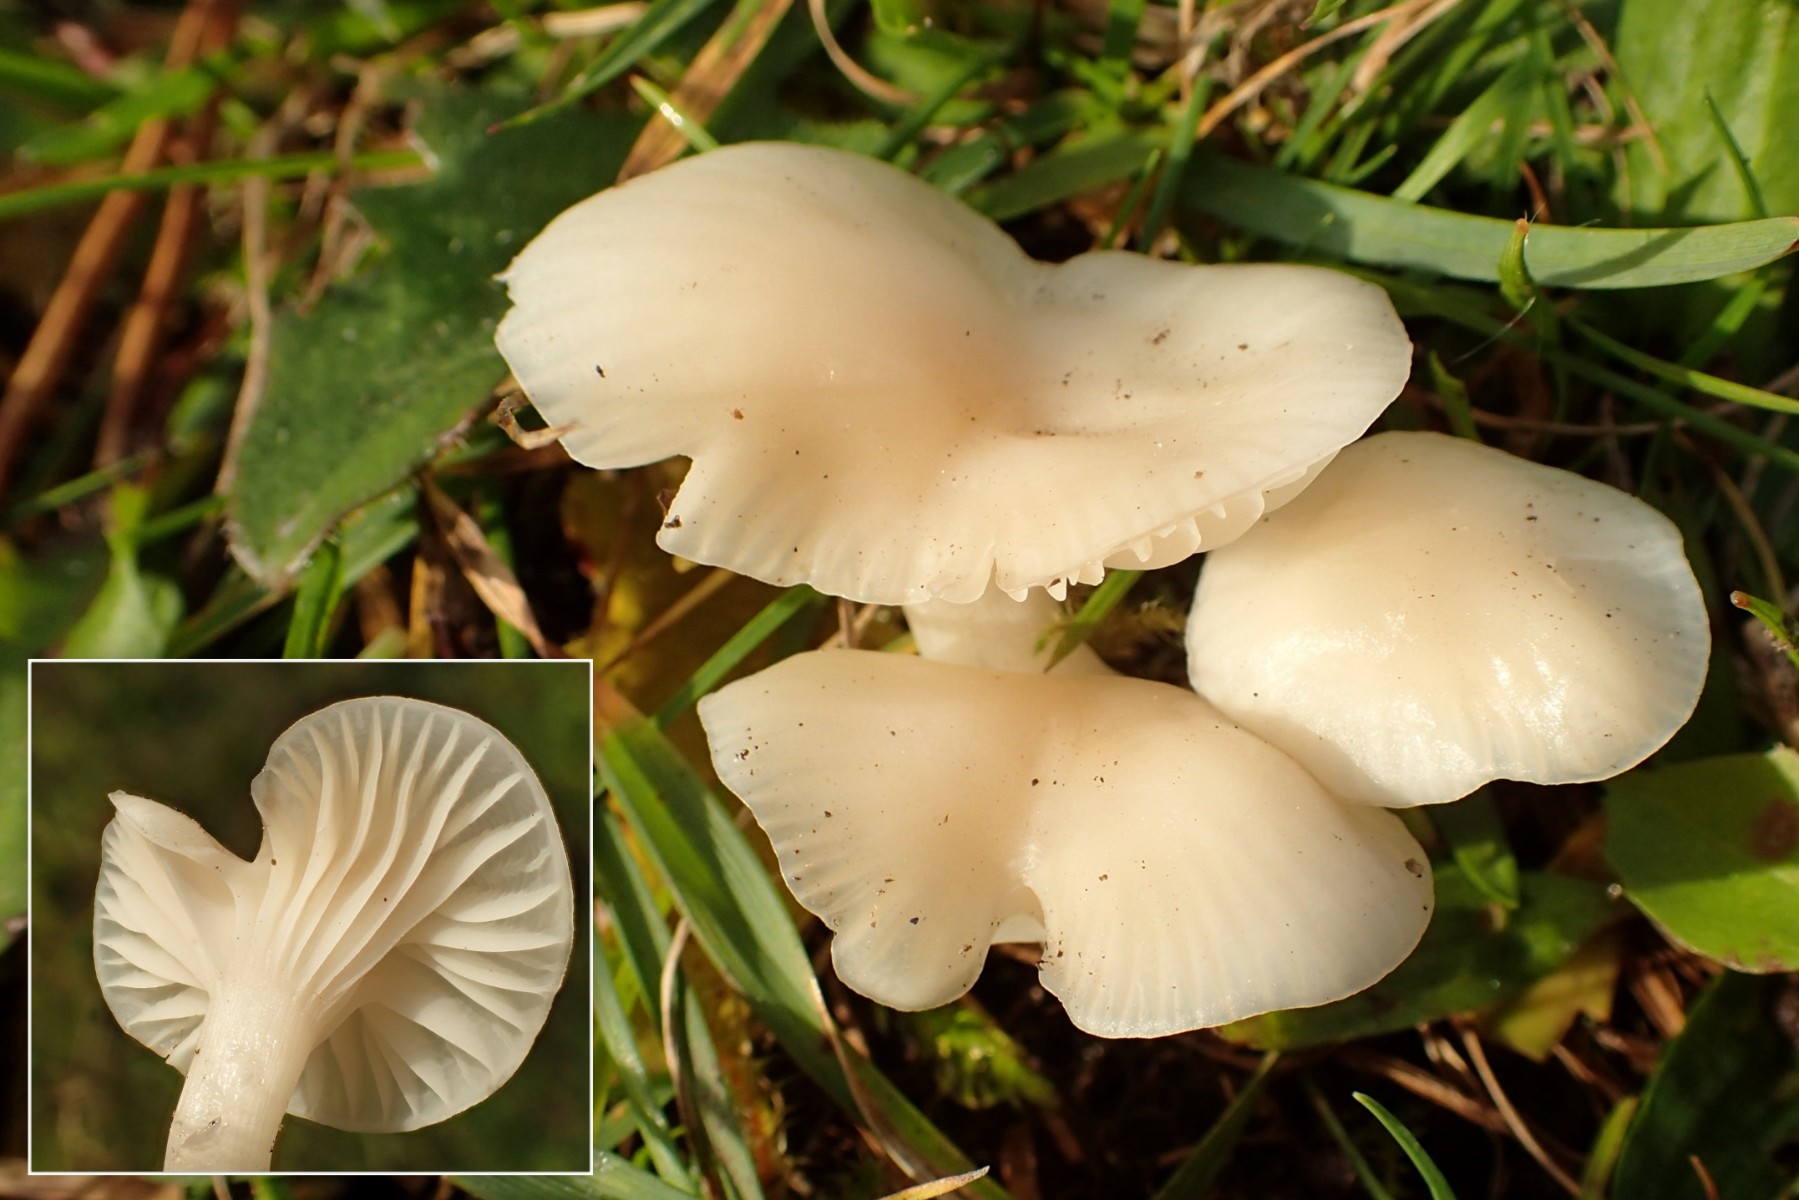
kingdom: Fungi
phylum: Basidiomycota
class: Agaricomycetes
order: Agaricales
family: Hygrophoraceae
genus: Cuphophyllus
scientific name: Cuphophyllus virgineus
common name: snehvid vokshat
